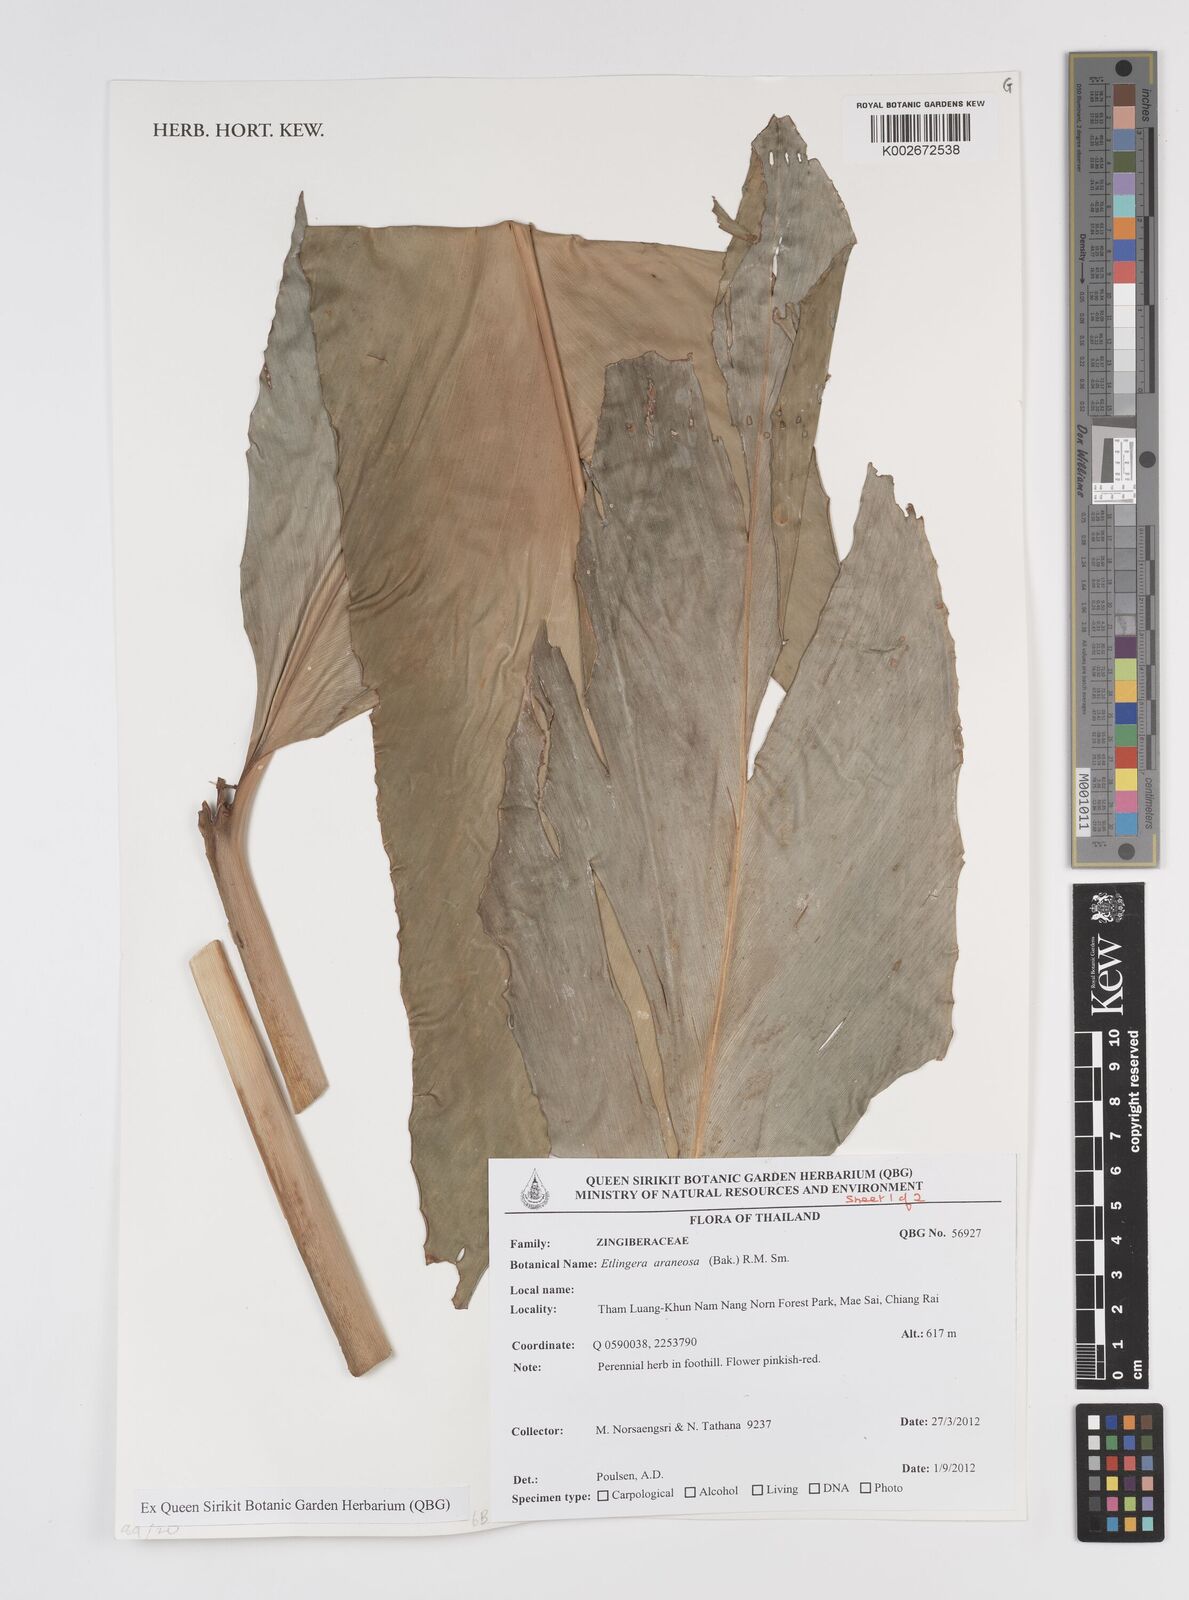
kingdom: Plantae
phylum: Tracheophyta
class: Liliopsida
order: Zingiberales
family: Zingiberaceae
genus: Etlingera
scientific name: Etlingera araneosa
